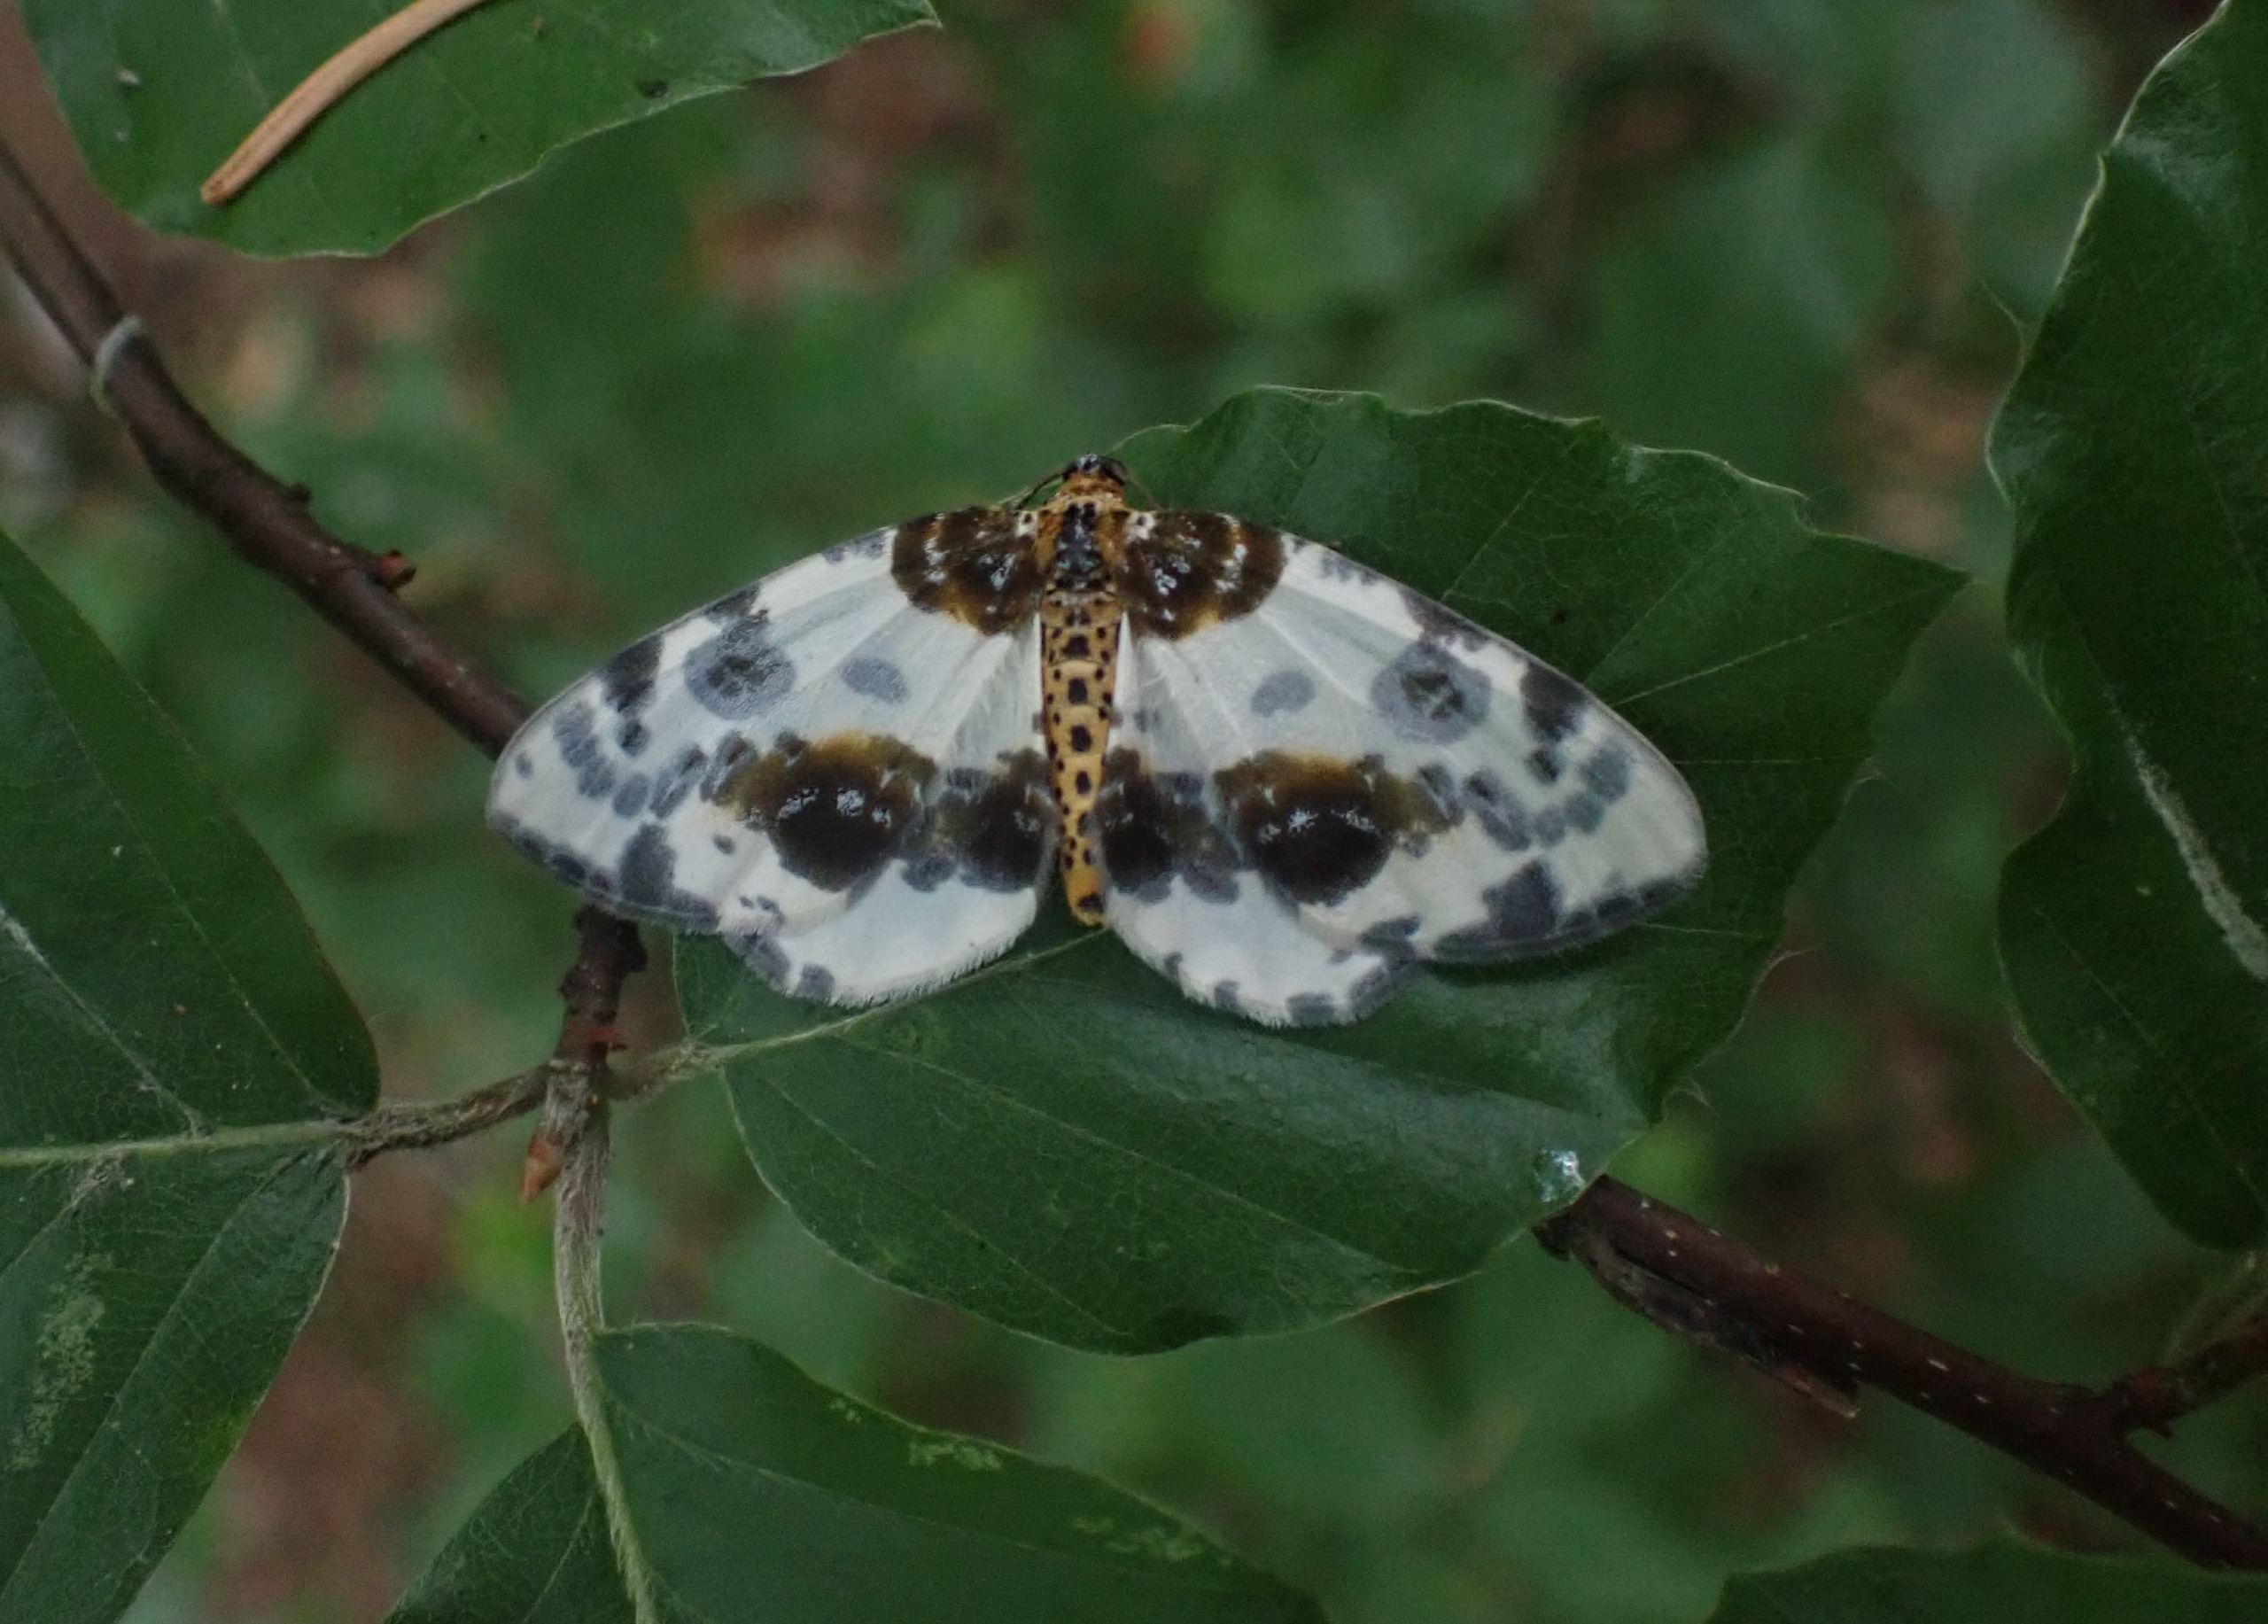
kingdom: Animalia
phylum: Arthropoda
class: Insecta
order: Lepidoptera
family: Geometridae
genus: Abraxas
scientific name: Abraxas sylvata
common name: Elmemåler
